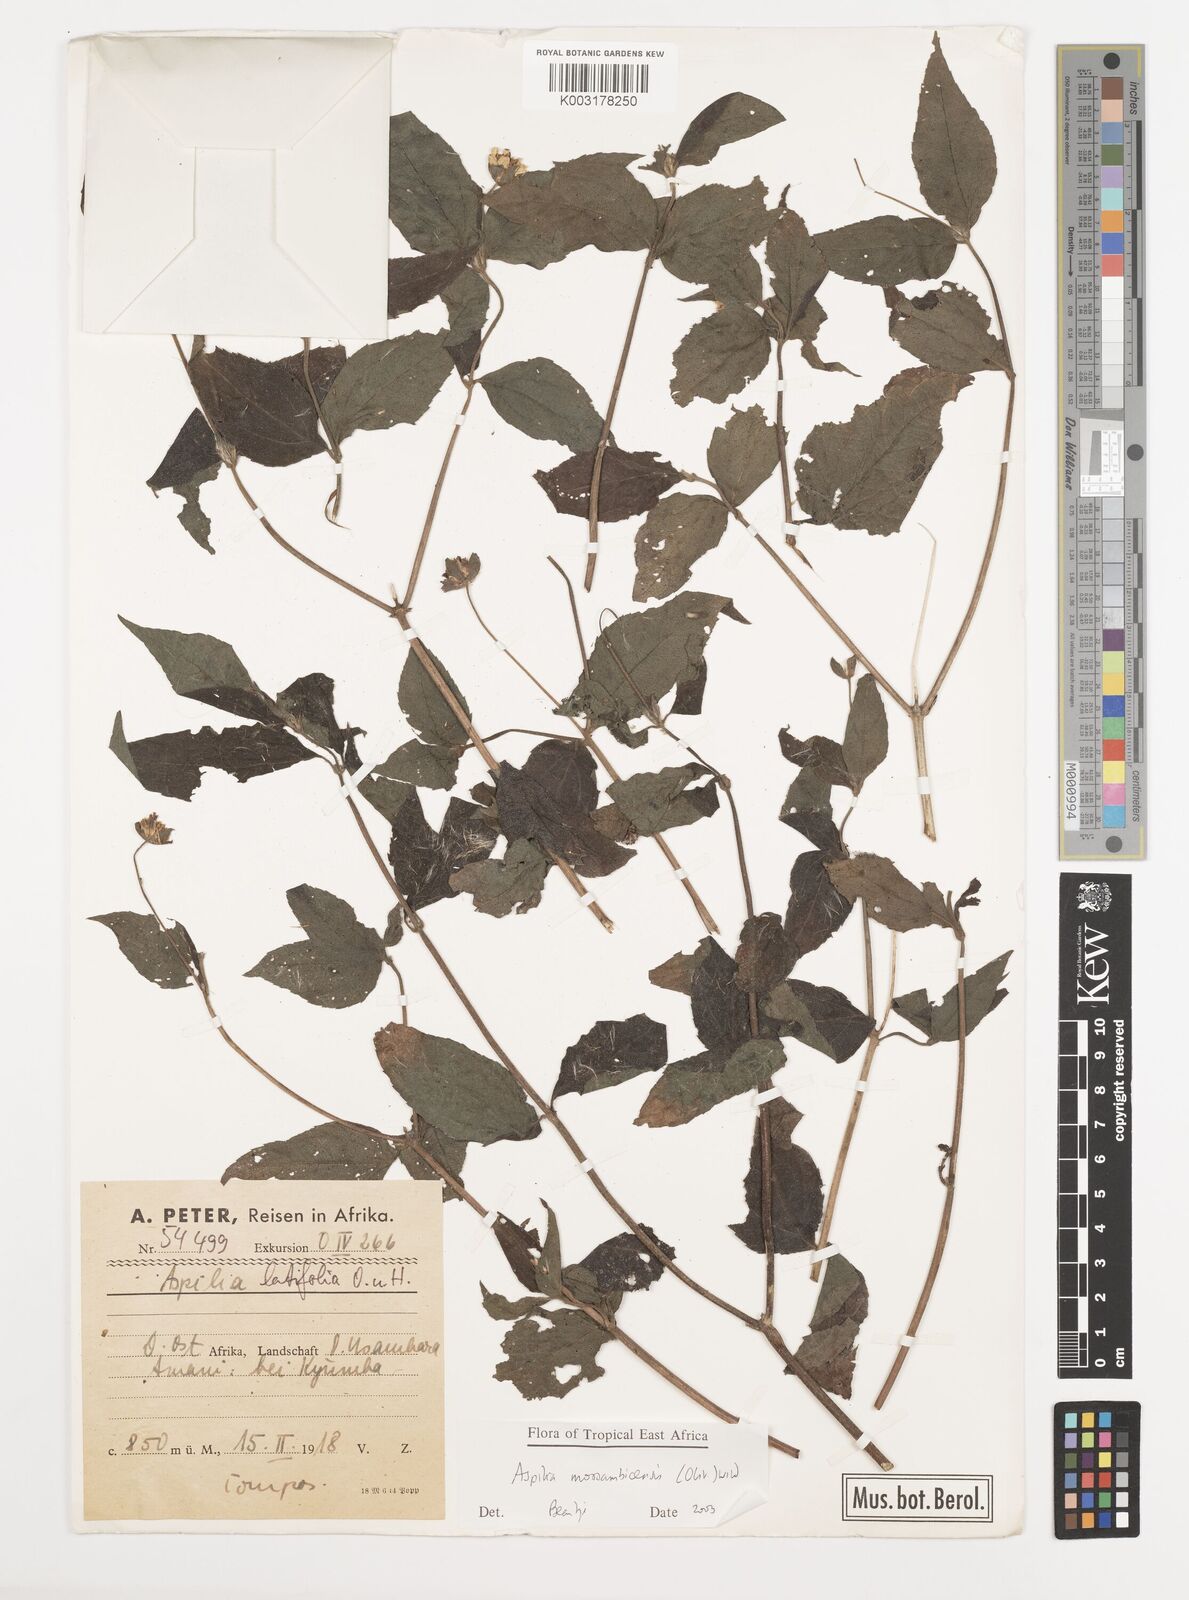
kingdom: Plantae
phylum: Tracheophyta
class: Magnoliopsida
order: Asterales
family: Asteraceae
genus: Aspilia
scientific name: Aspilia mossambicensis
